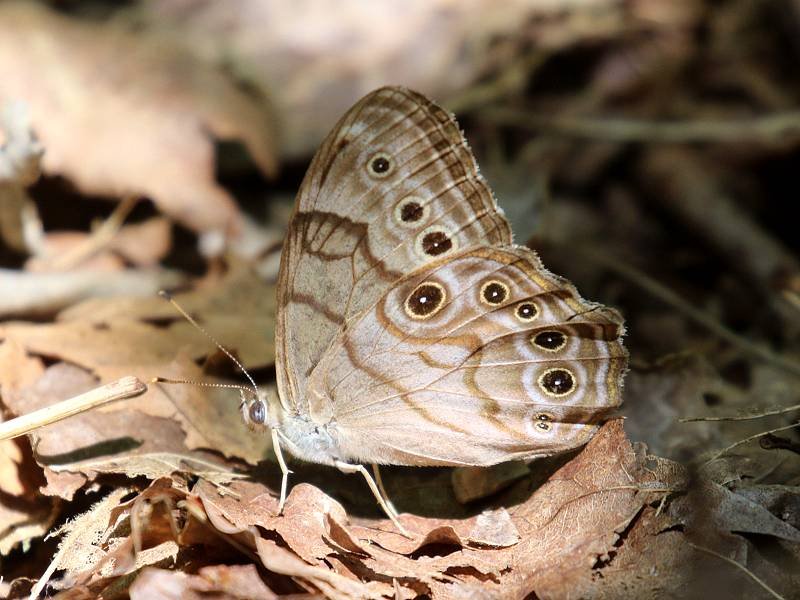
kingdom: Animalia
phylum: Arthropoda
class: Insecta
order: Lepidoptera
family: Nymphalidae
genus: Lethe
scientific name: Lethe anthedon
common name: Northern Pearly-Eye
